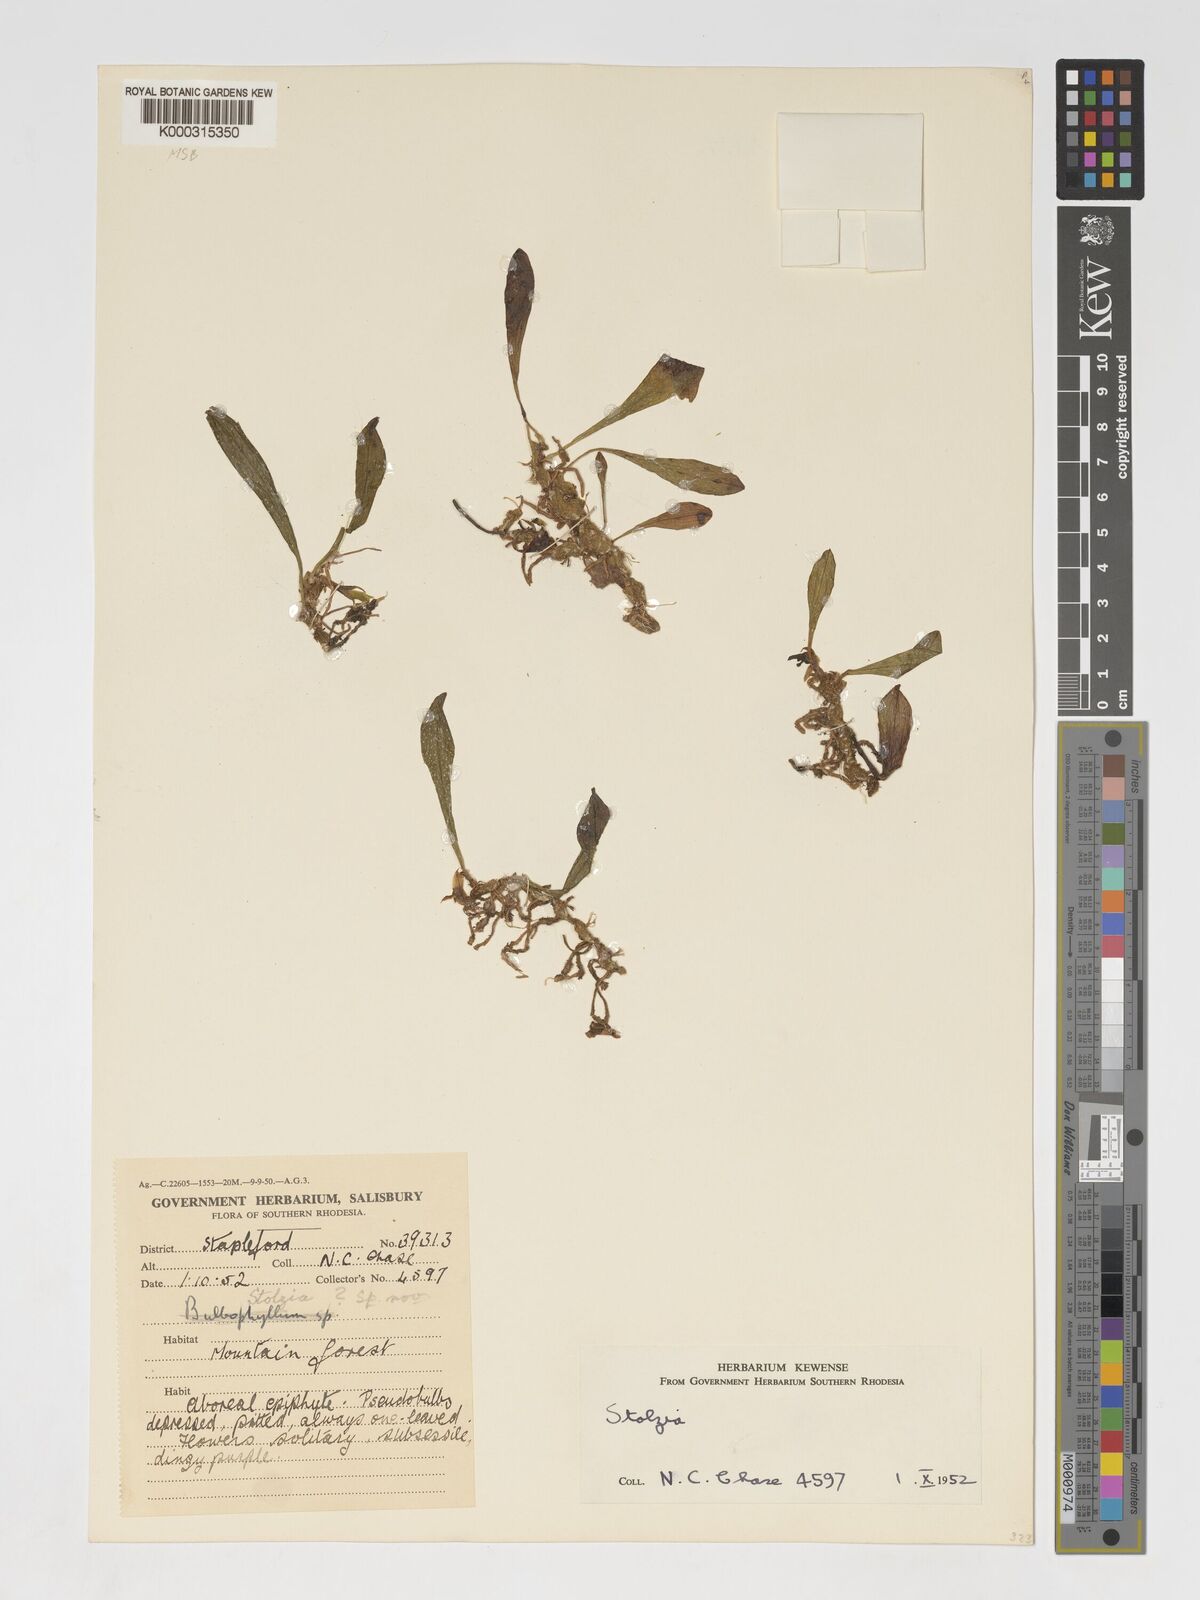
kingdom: Plantae
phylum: Tracheophyta
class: Liliopsida
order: Asparagales
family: Orchidaceae
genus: Porpax
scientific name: Porpax compacta
